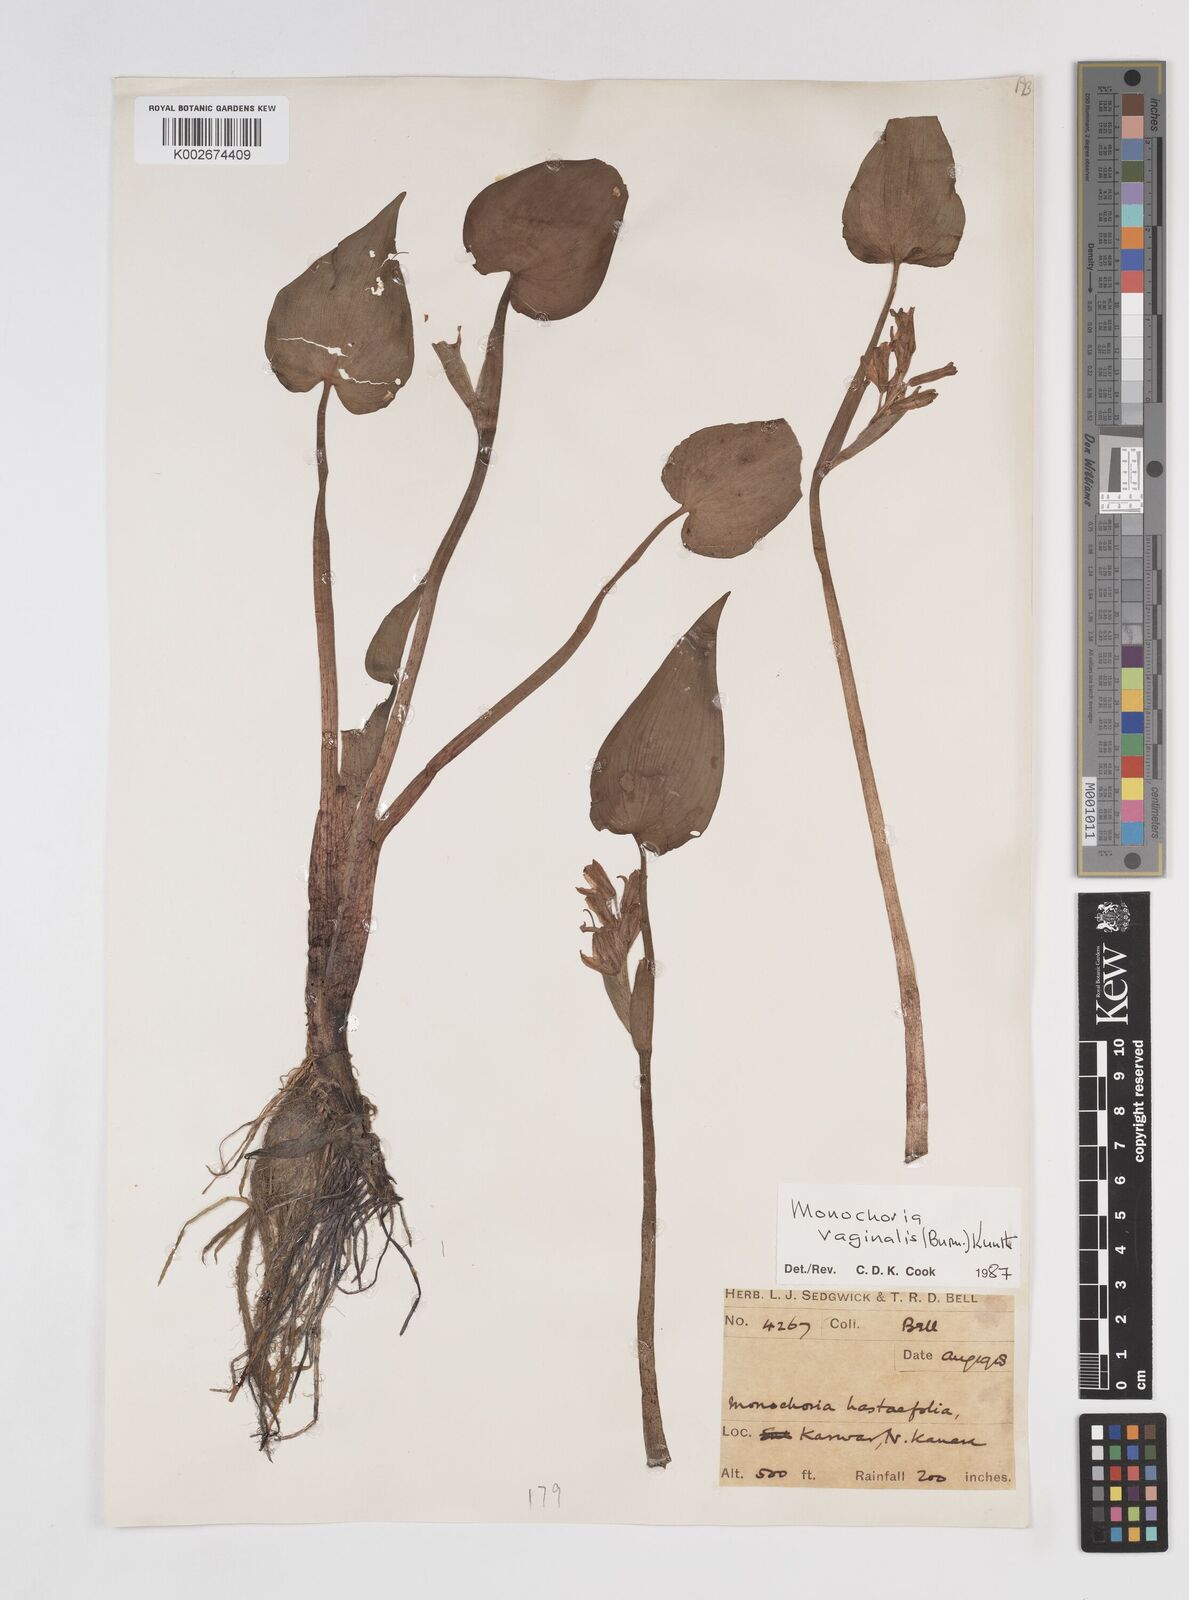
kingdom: Plantae
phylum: Tracheophyta
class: Liliopsida
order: Commelinales
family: Pontederiaceae
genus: Pontederia
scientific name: Pontederia vaginalis
